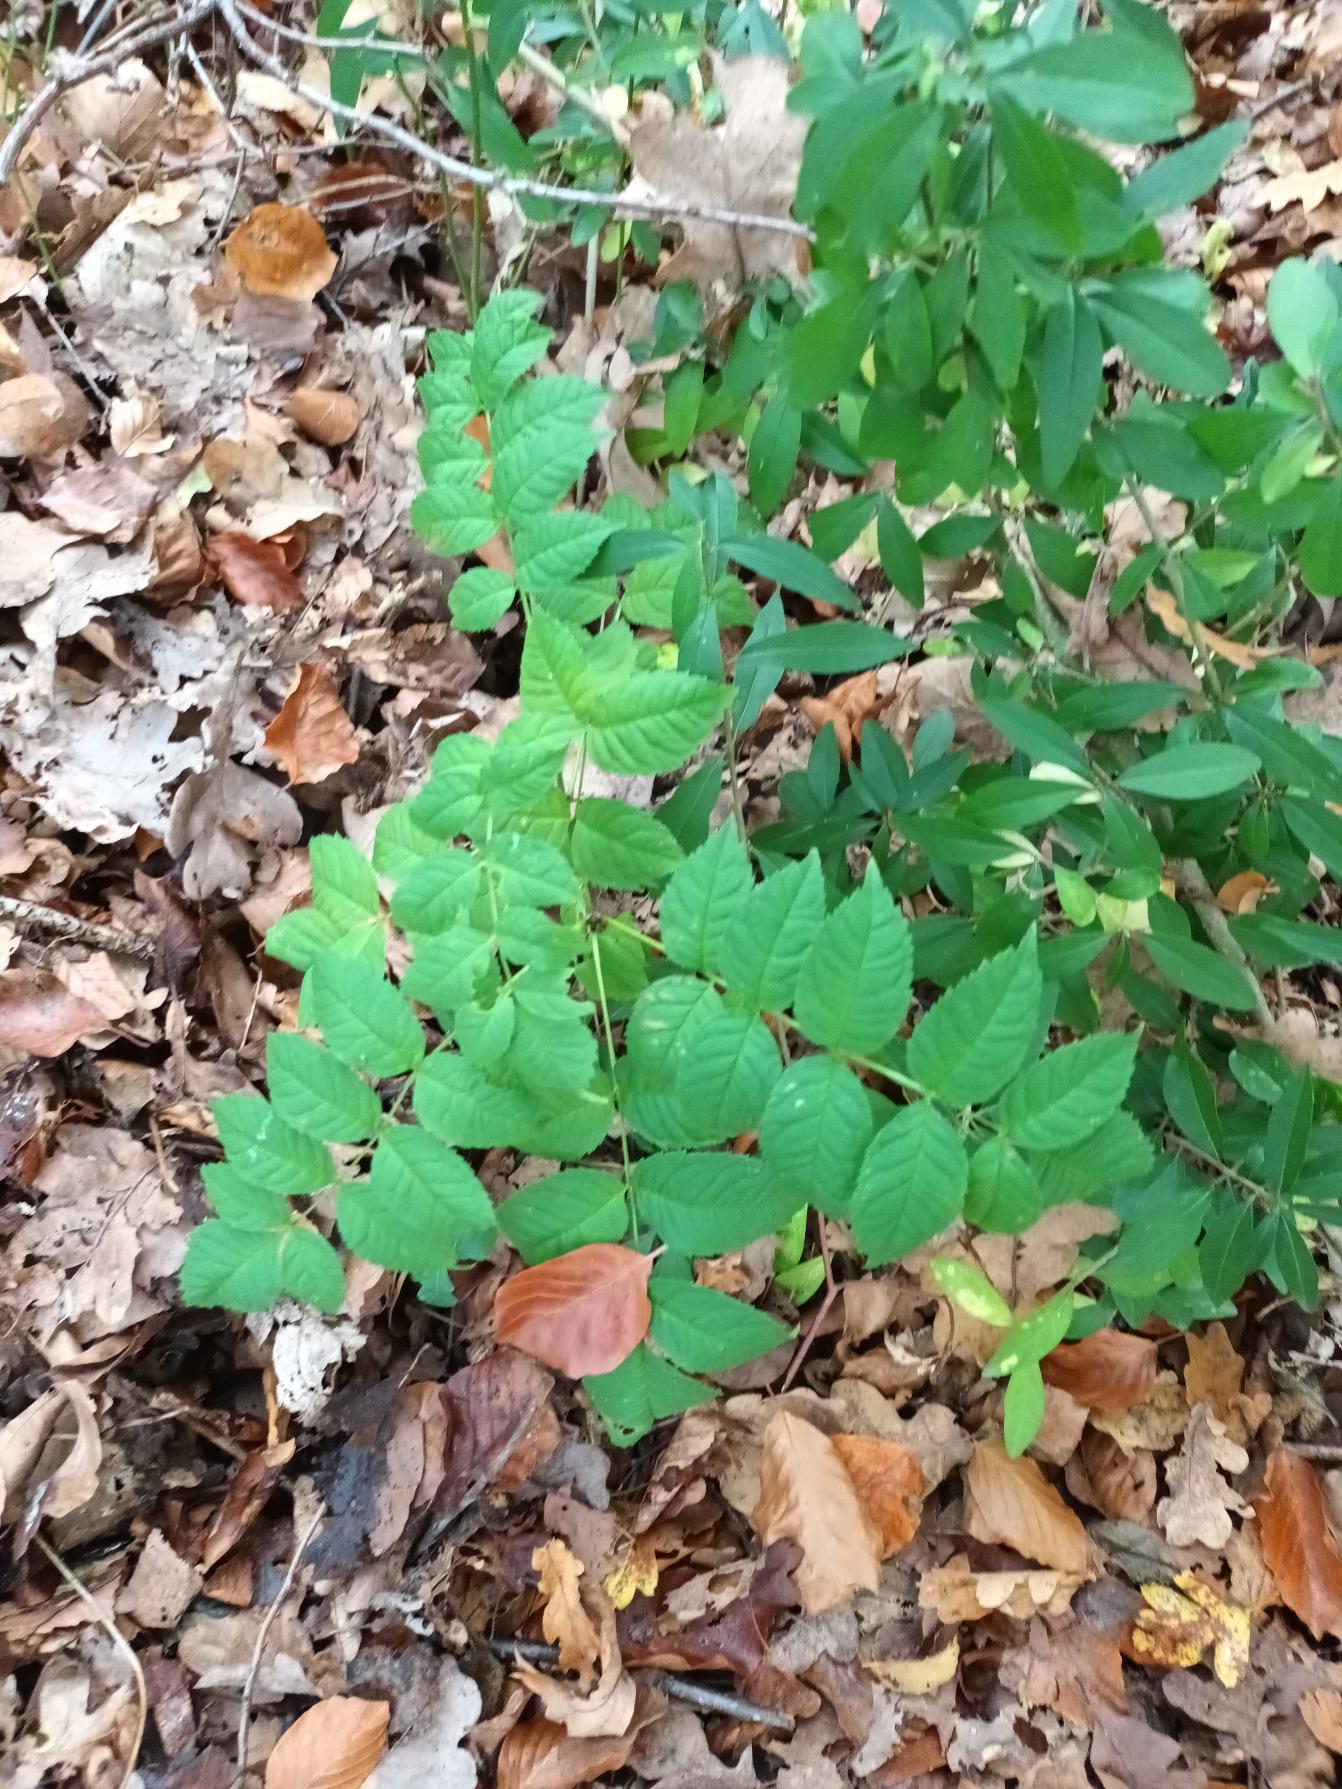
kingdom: Plantae
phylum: Tracheophyta
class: Magnoliopsida
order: Lamiales
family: Oleaceae
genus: Fraxinus
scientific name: Fraxinus excelsior
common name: Ask
